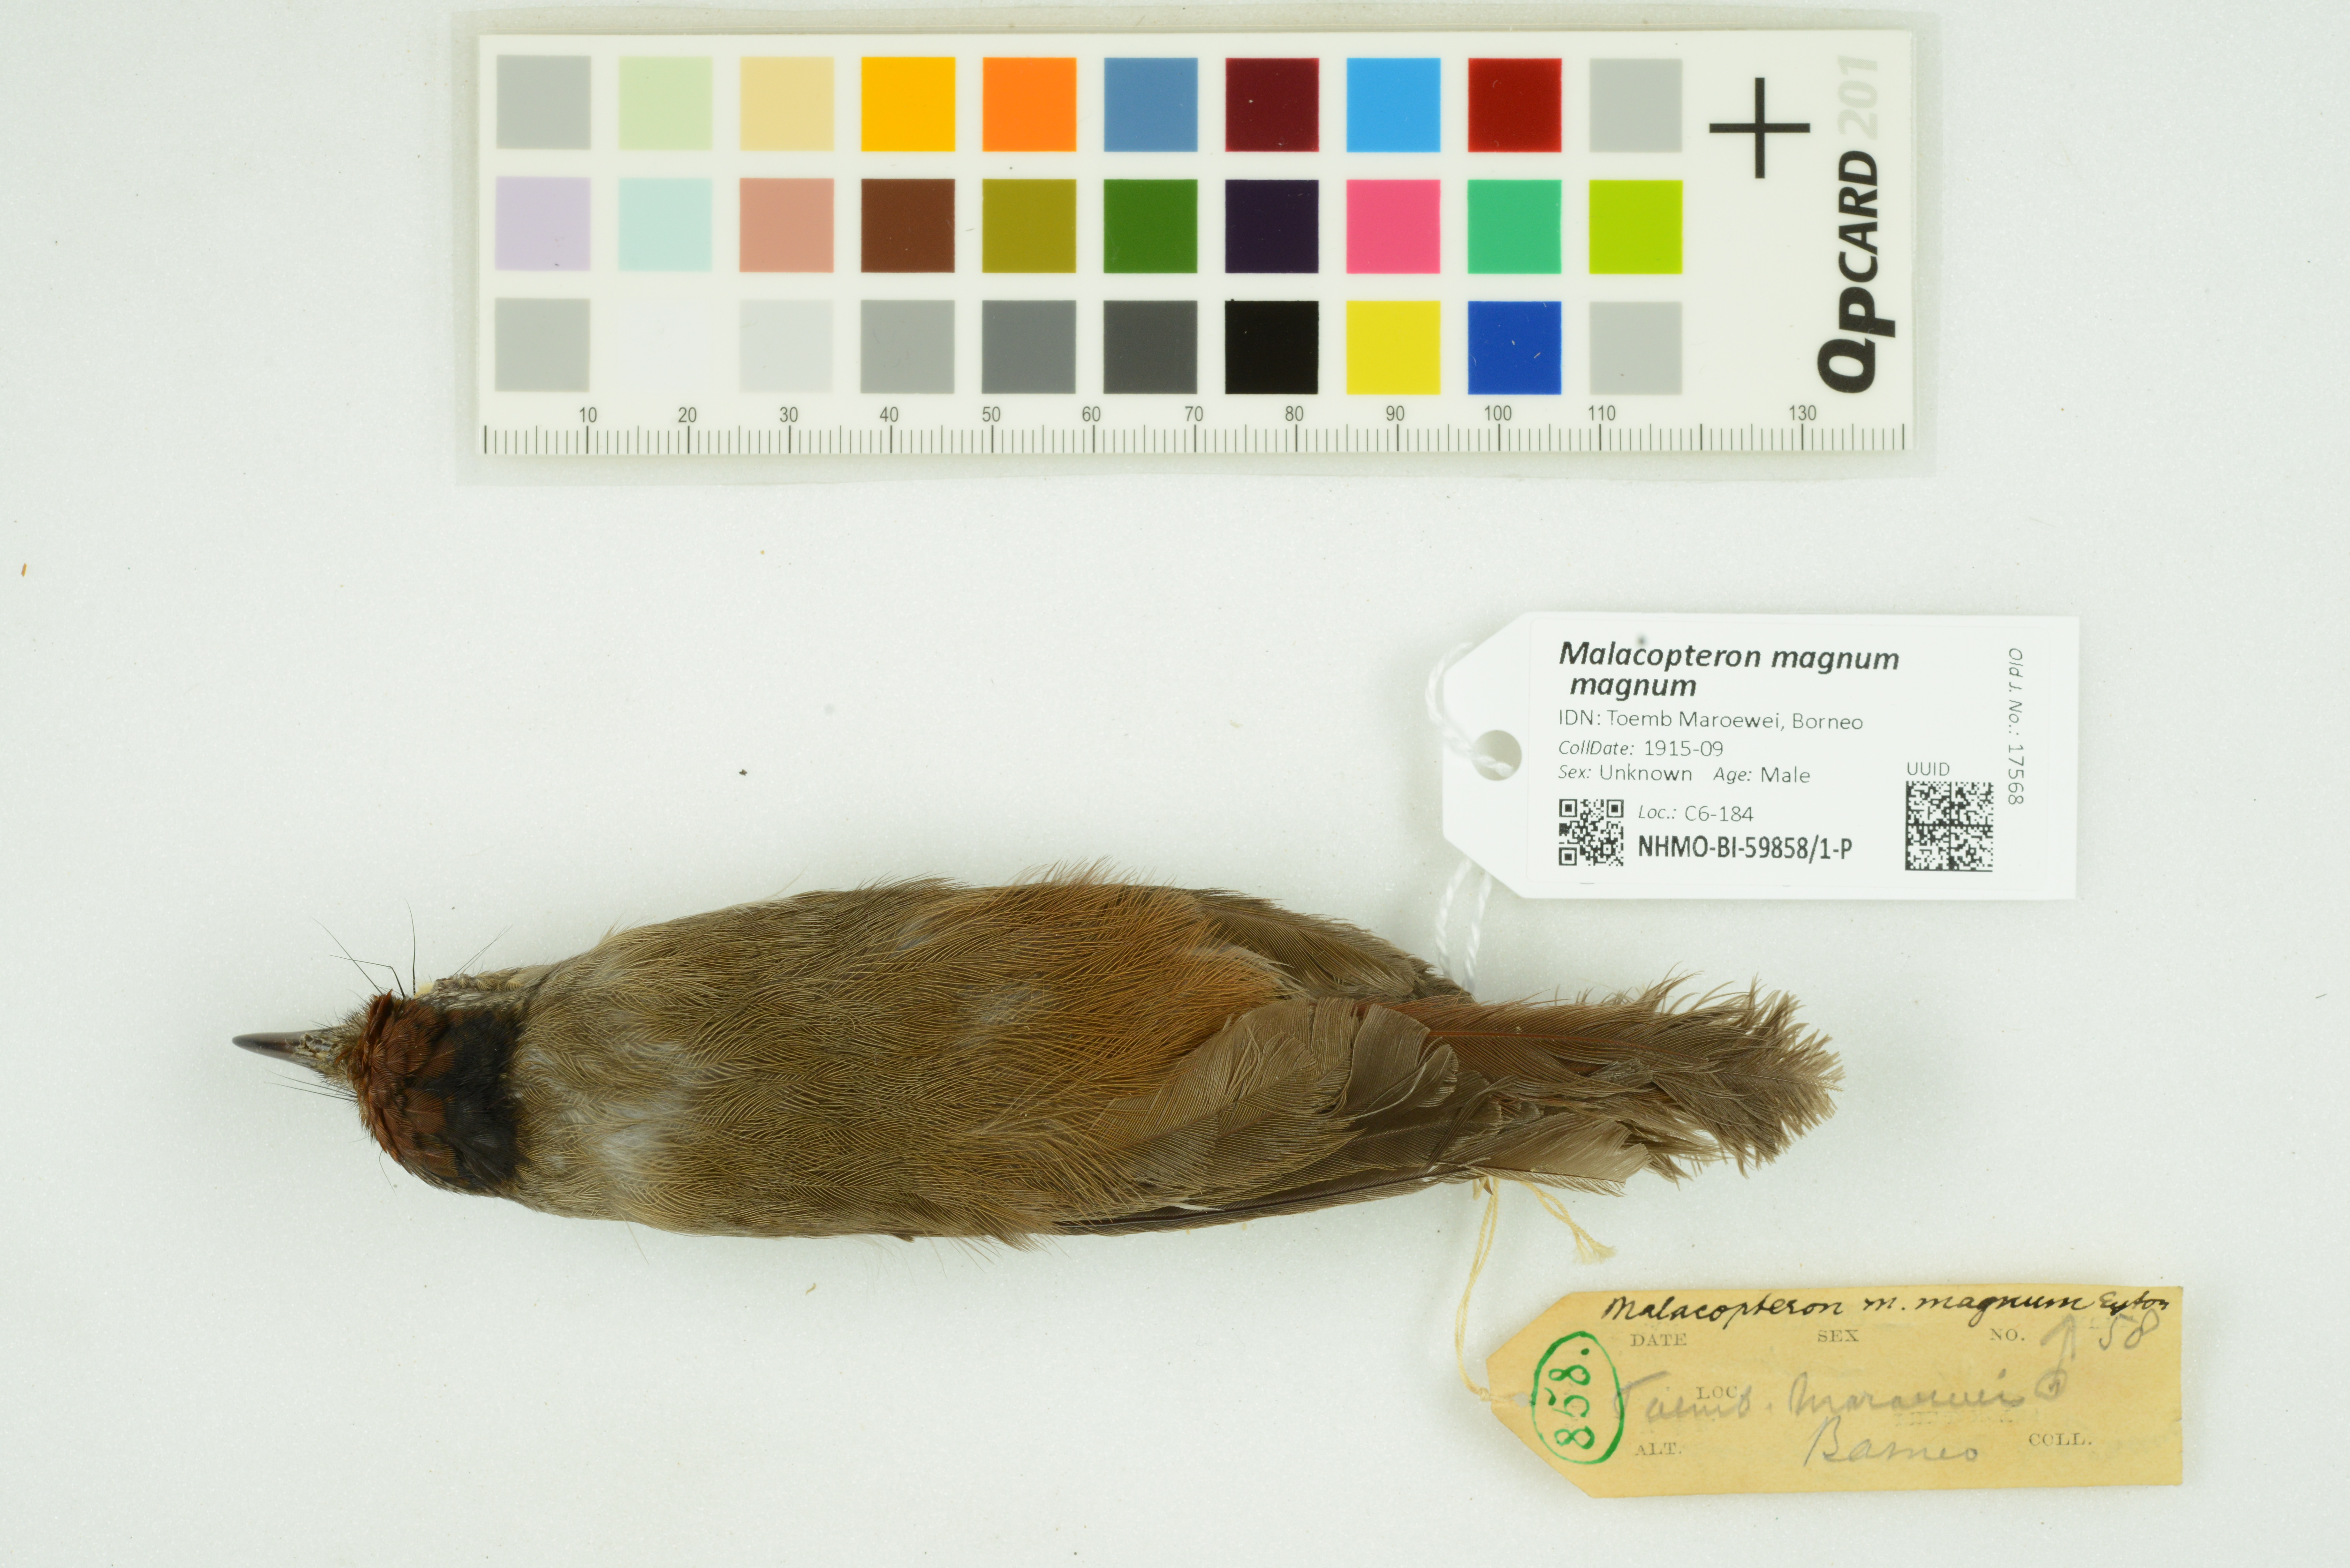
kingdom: Animalia
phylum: Chordata
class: Aves
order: Passeriformes
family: Pellorneidae
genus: Malacopteron
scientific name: Malacopteron magnum
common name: Rufous-crowned babbler
